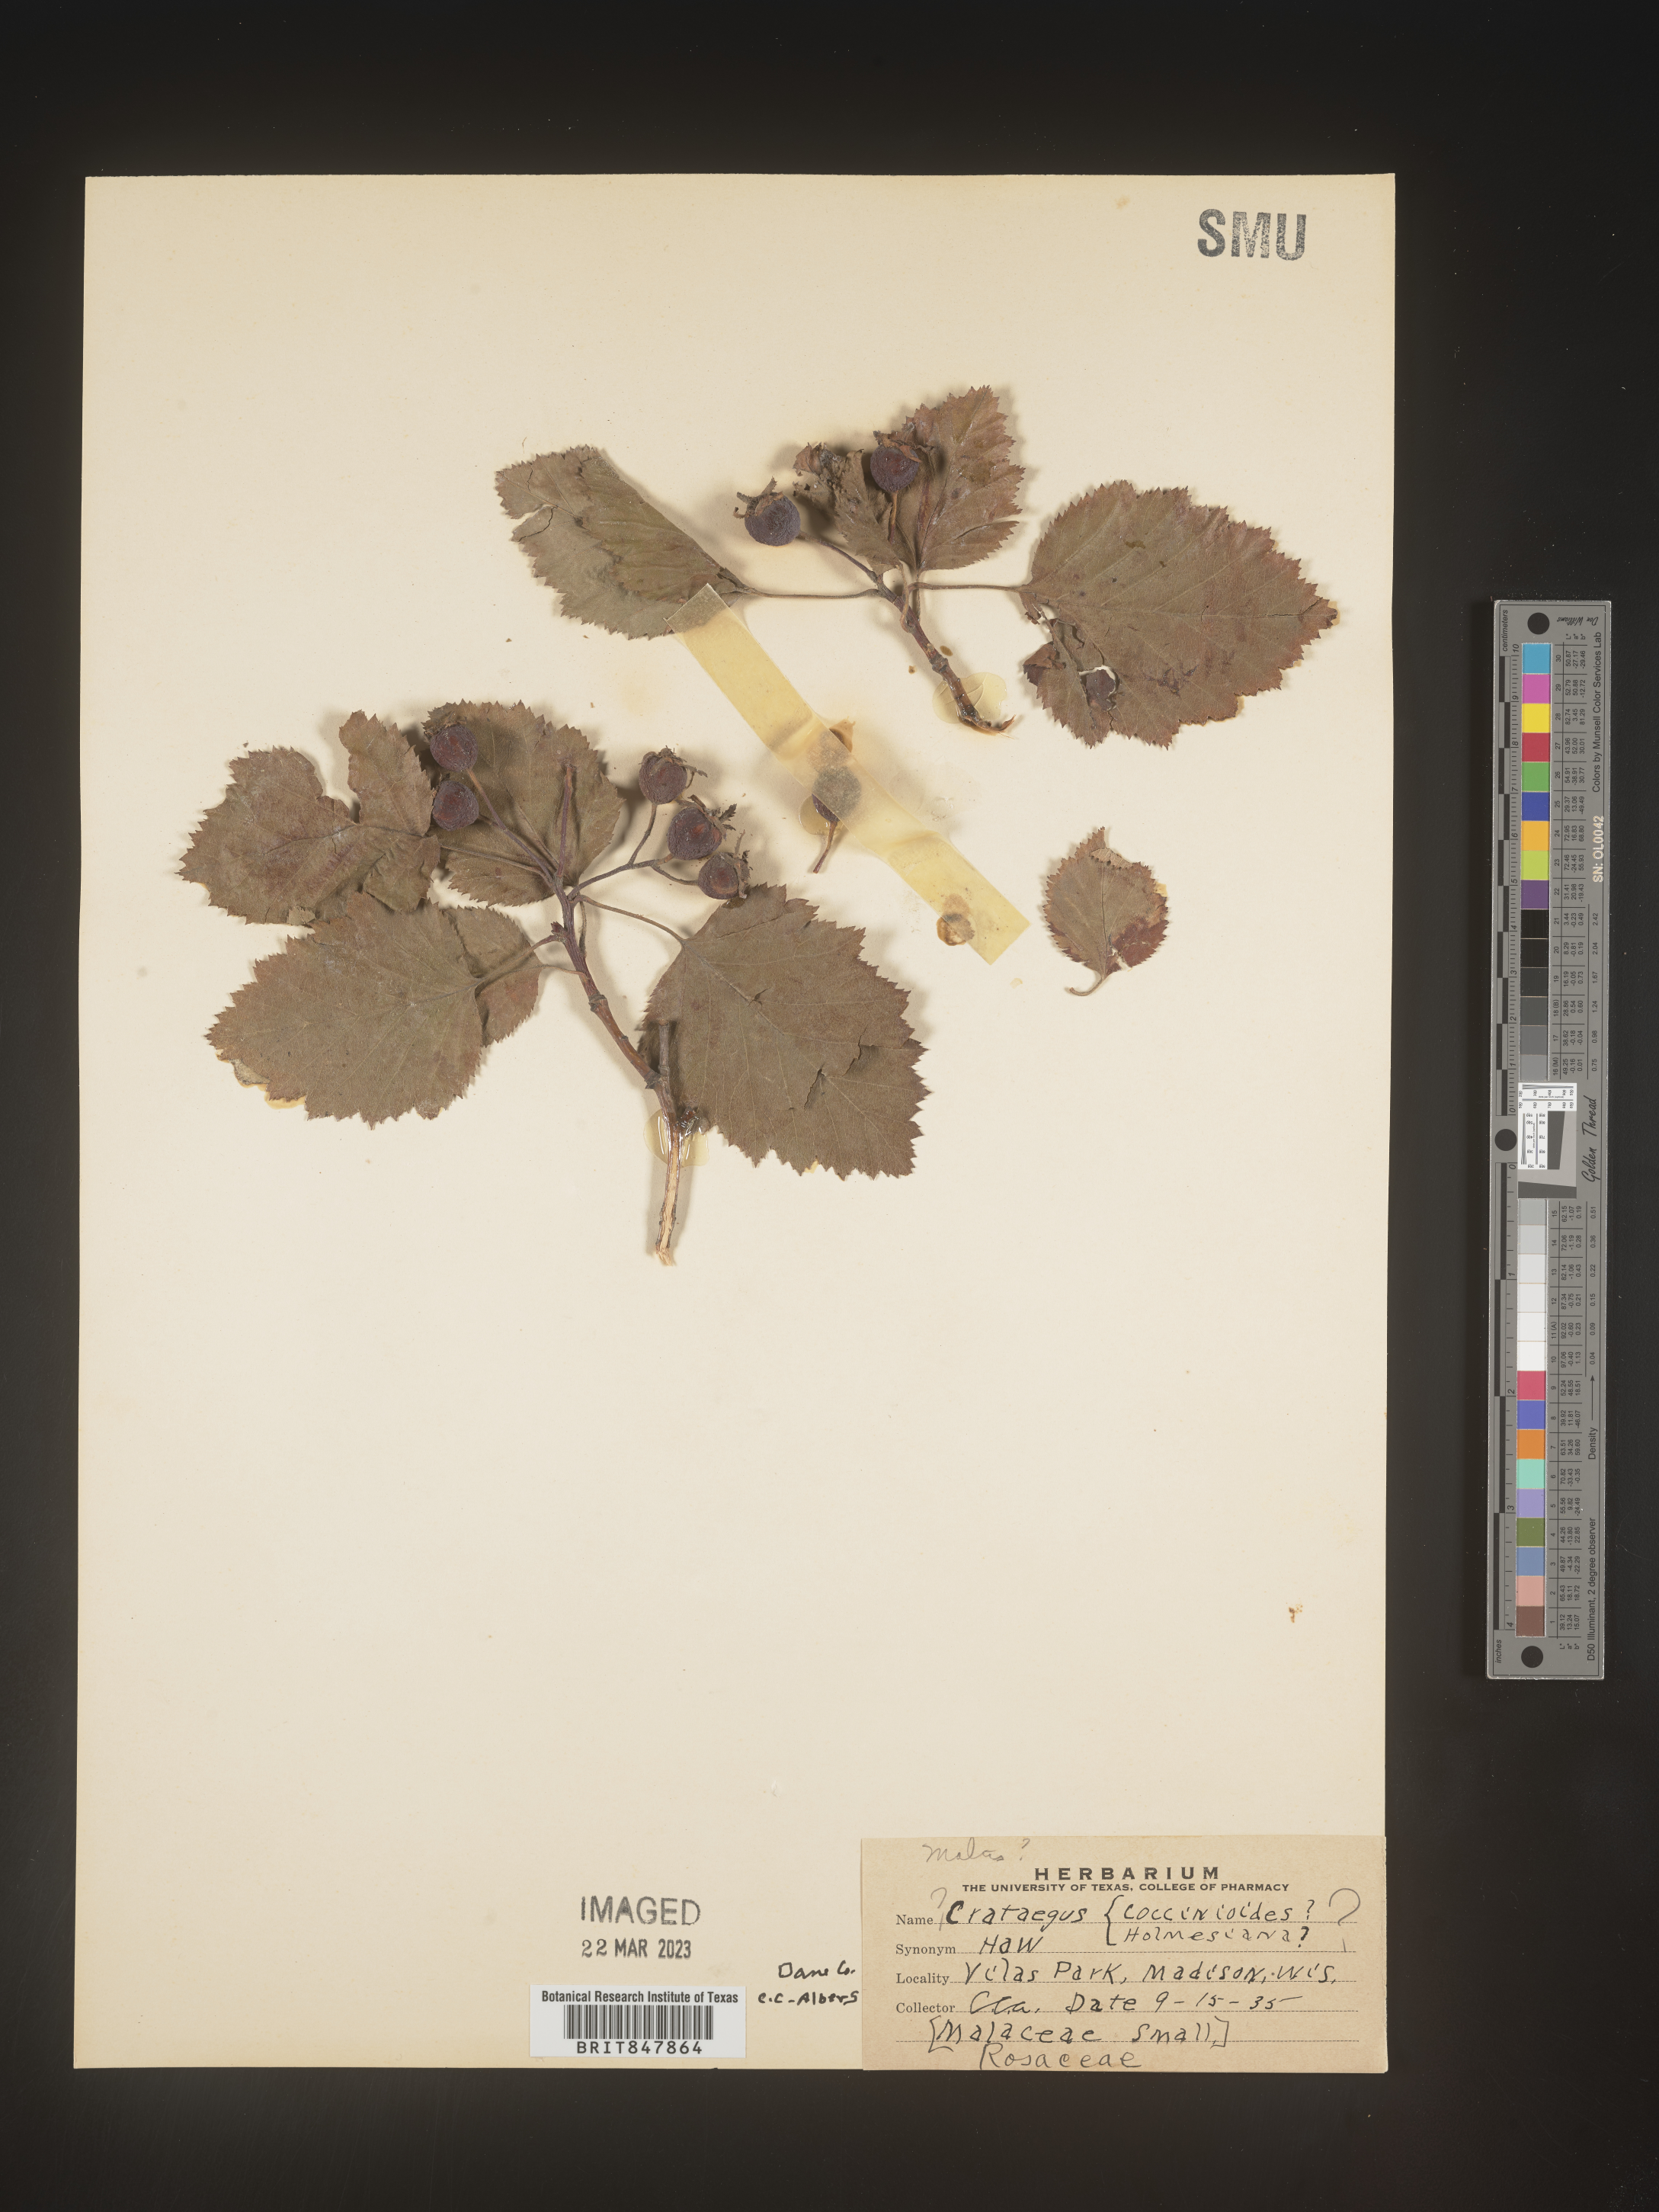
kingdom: Plantae
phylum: Tracheophyta
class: Magnoliopsida
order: Rosales
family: Rosaceae
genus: Crataegus
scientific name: Crataegus
